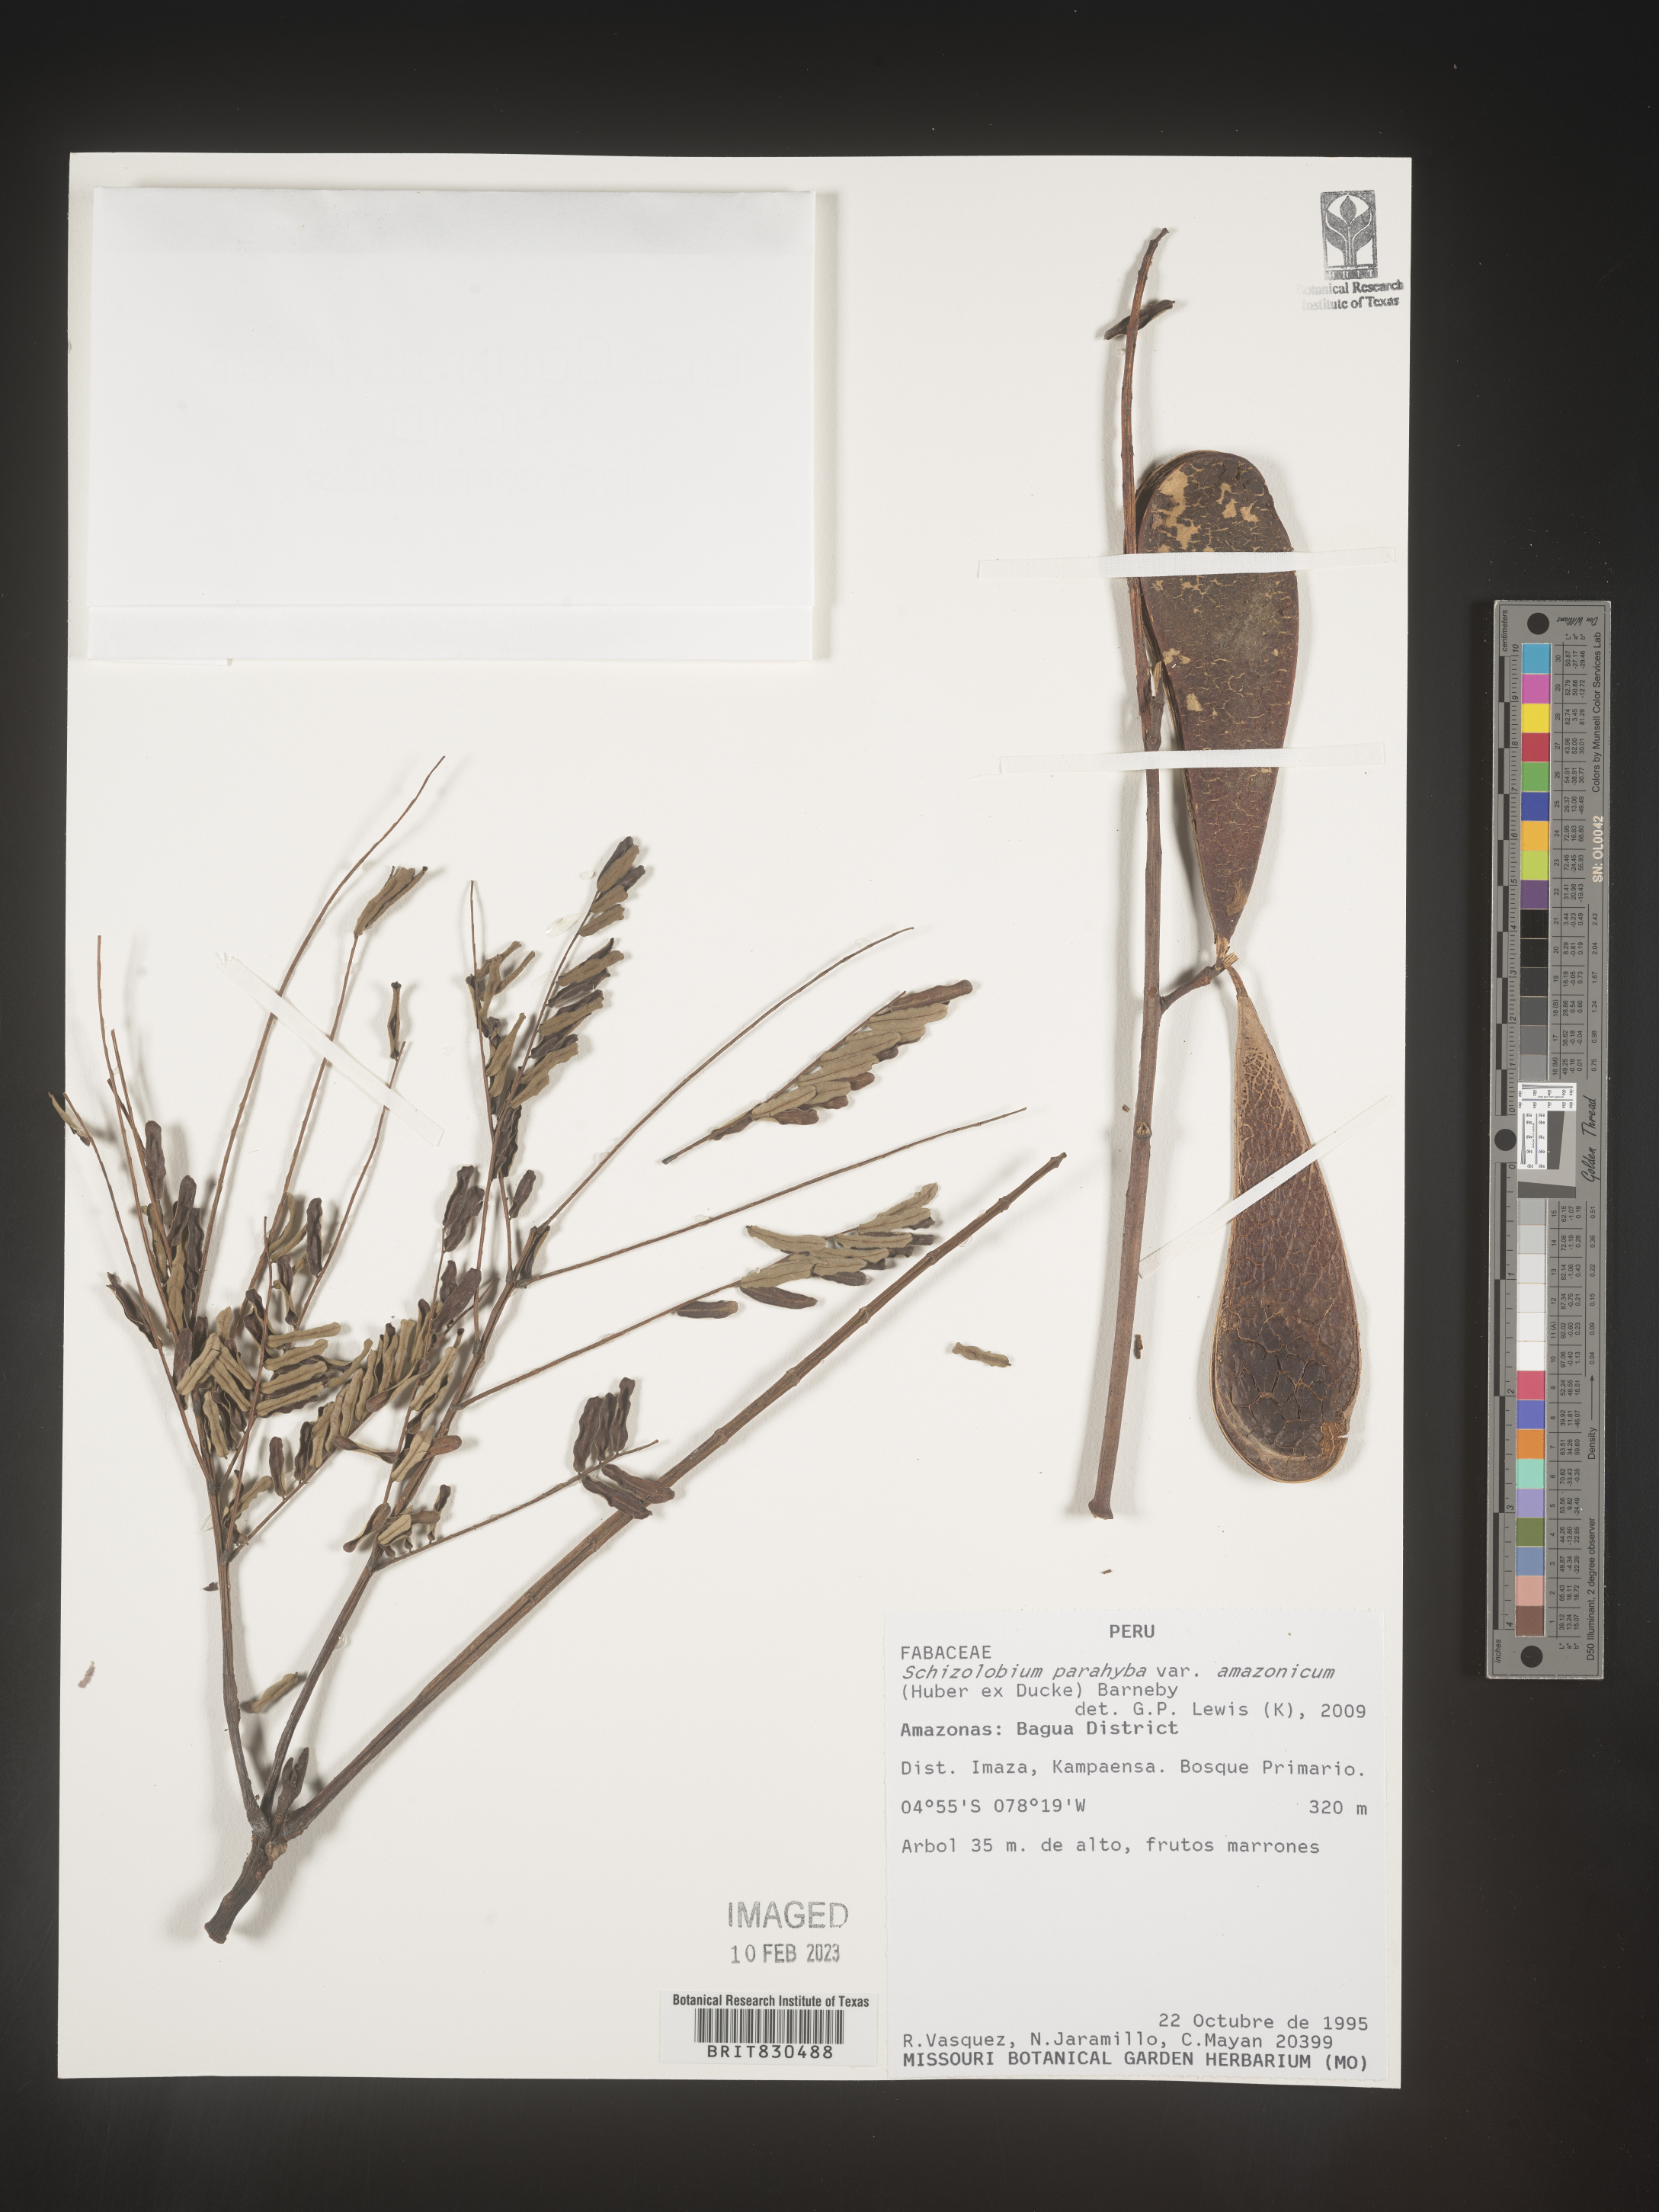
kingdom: Plantae
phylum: Tracheophyta
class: Magnoliopsida
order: Fabales
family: Fabaceae
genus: Schizolobium
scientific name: Schizolobium
